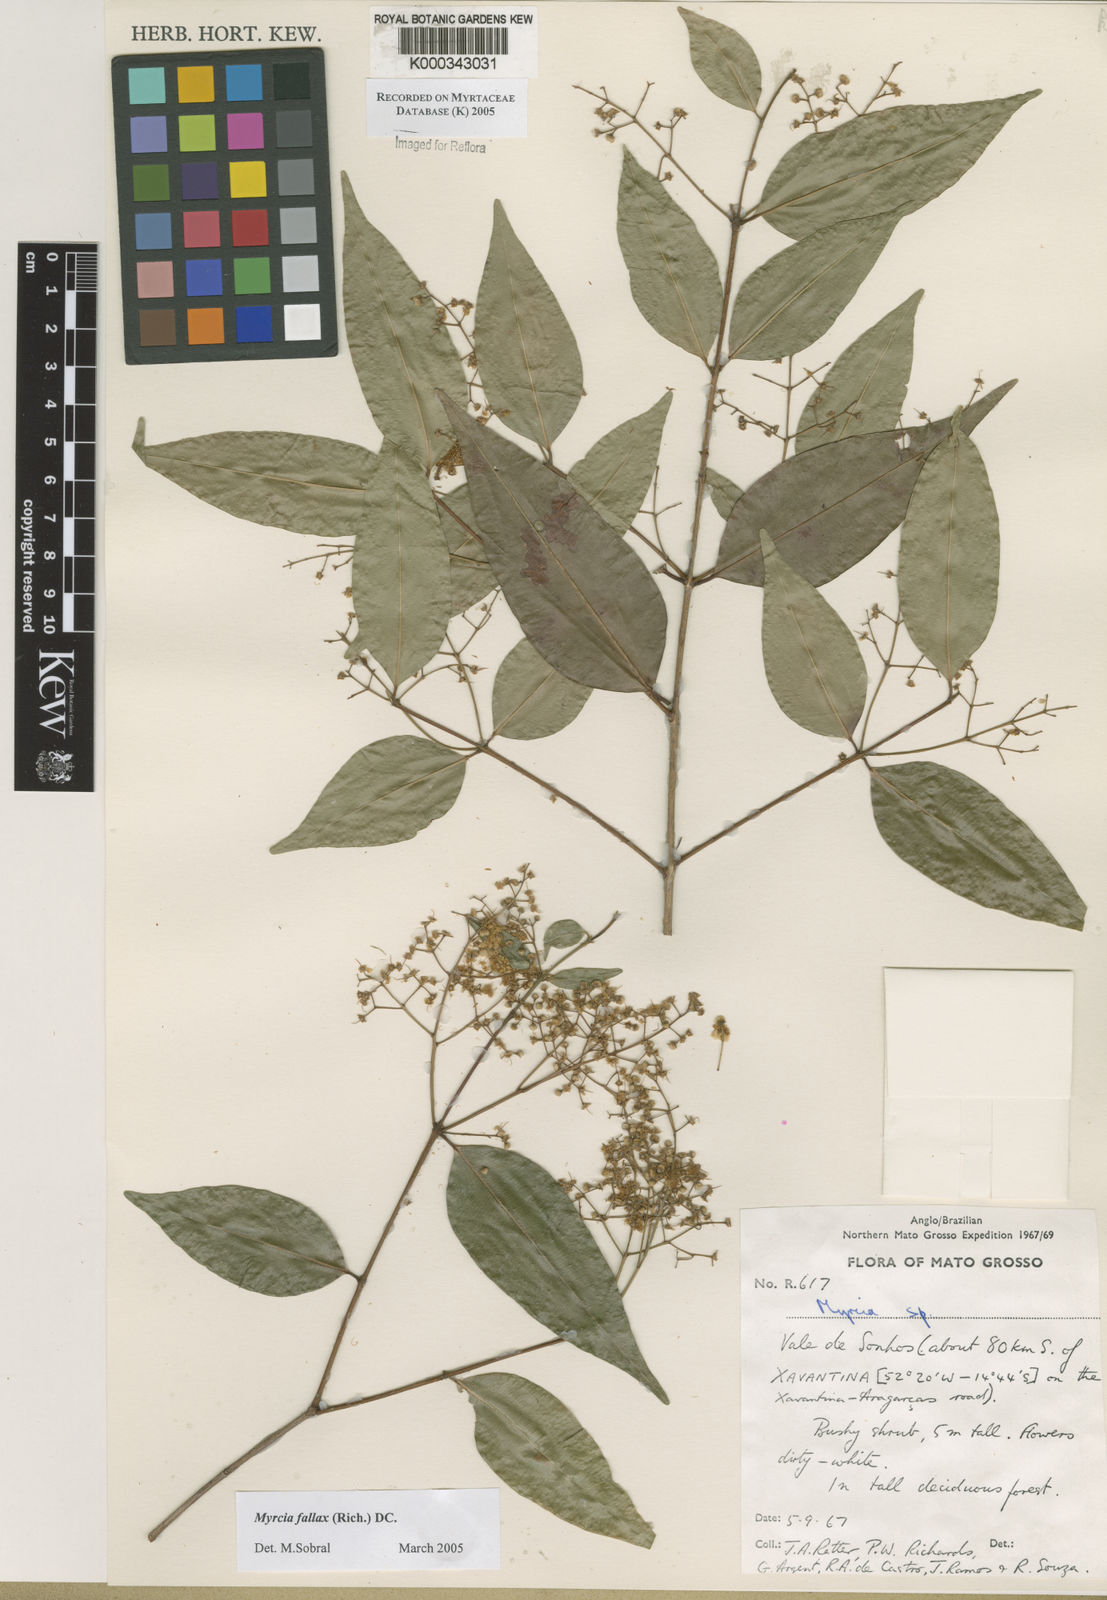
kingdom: Plantae
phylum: Tracheophyta
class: Magnoliopsida
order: Myrtales
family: Myrtaceae
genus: Myrcia
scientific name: Myrcia splendens
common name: Surinam cherry
